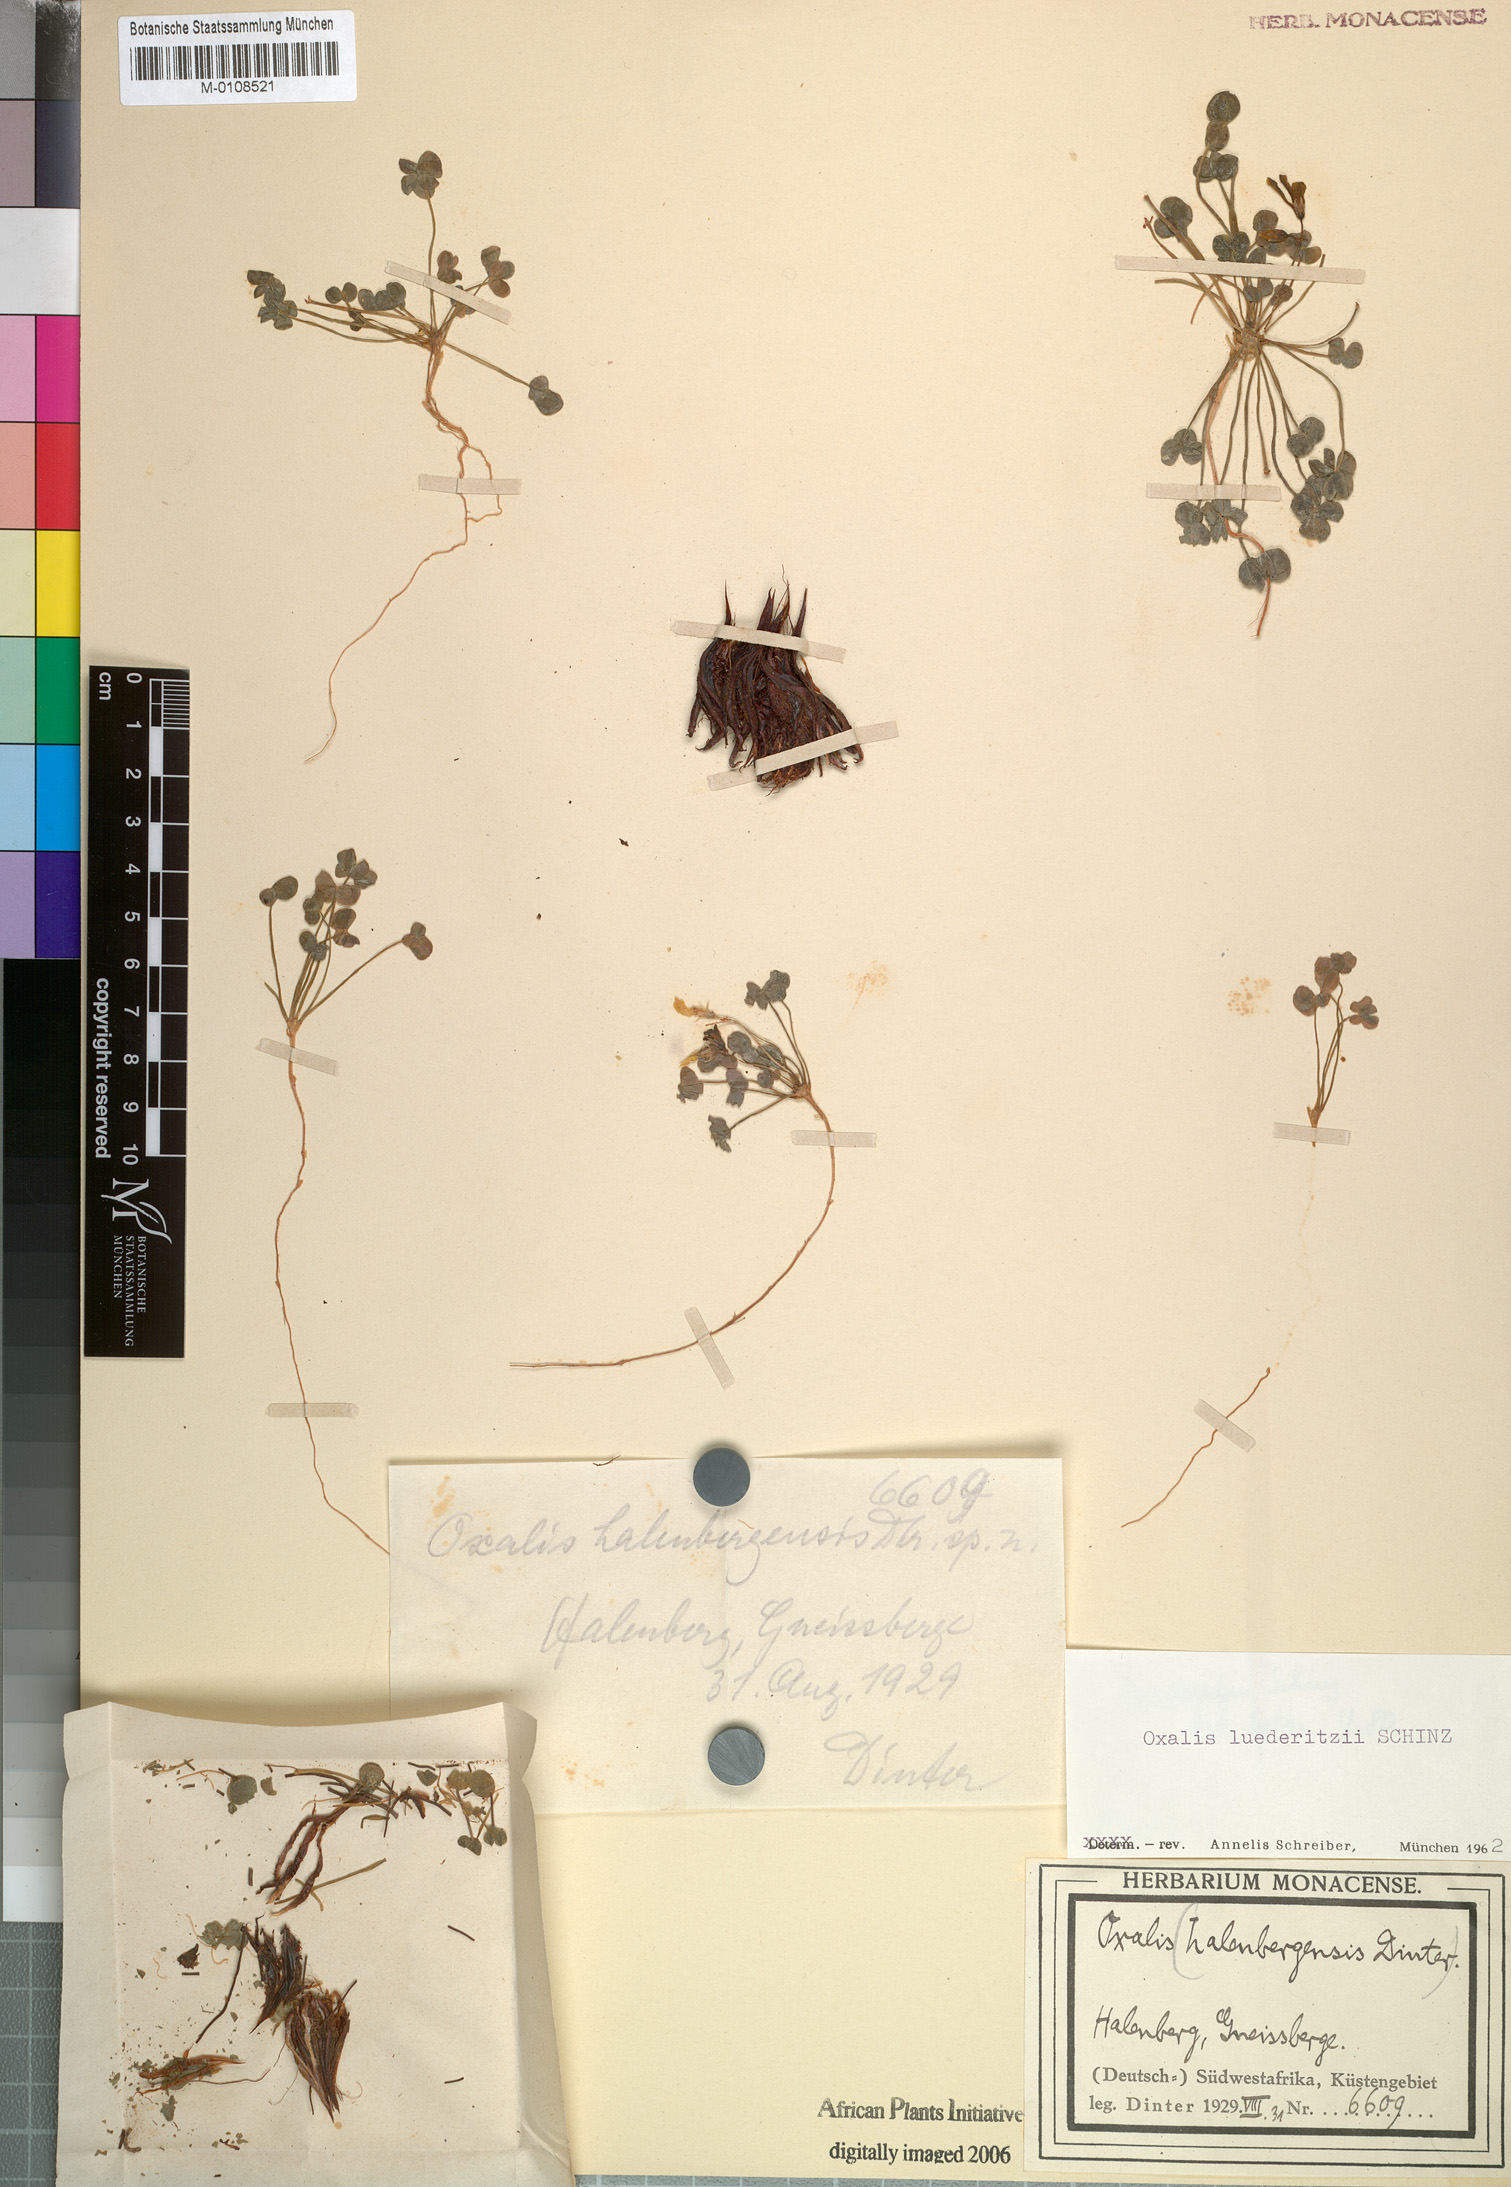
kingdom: Plantae
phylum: Tracheophyta
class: Magnoliopsida
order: Oxalidales
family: Oxalidaceae
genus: Oxalis
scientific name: Oxalis luederitzii
